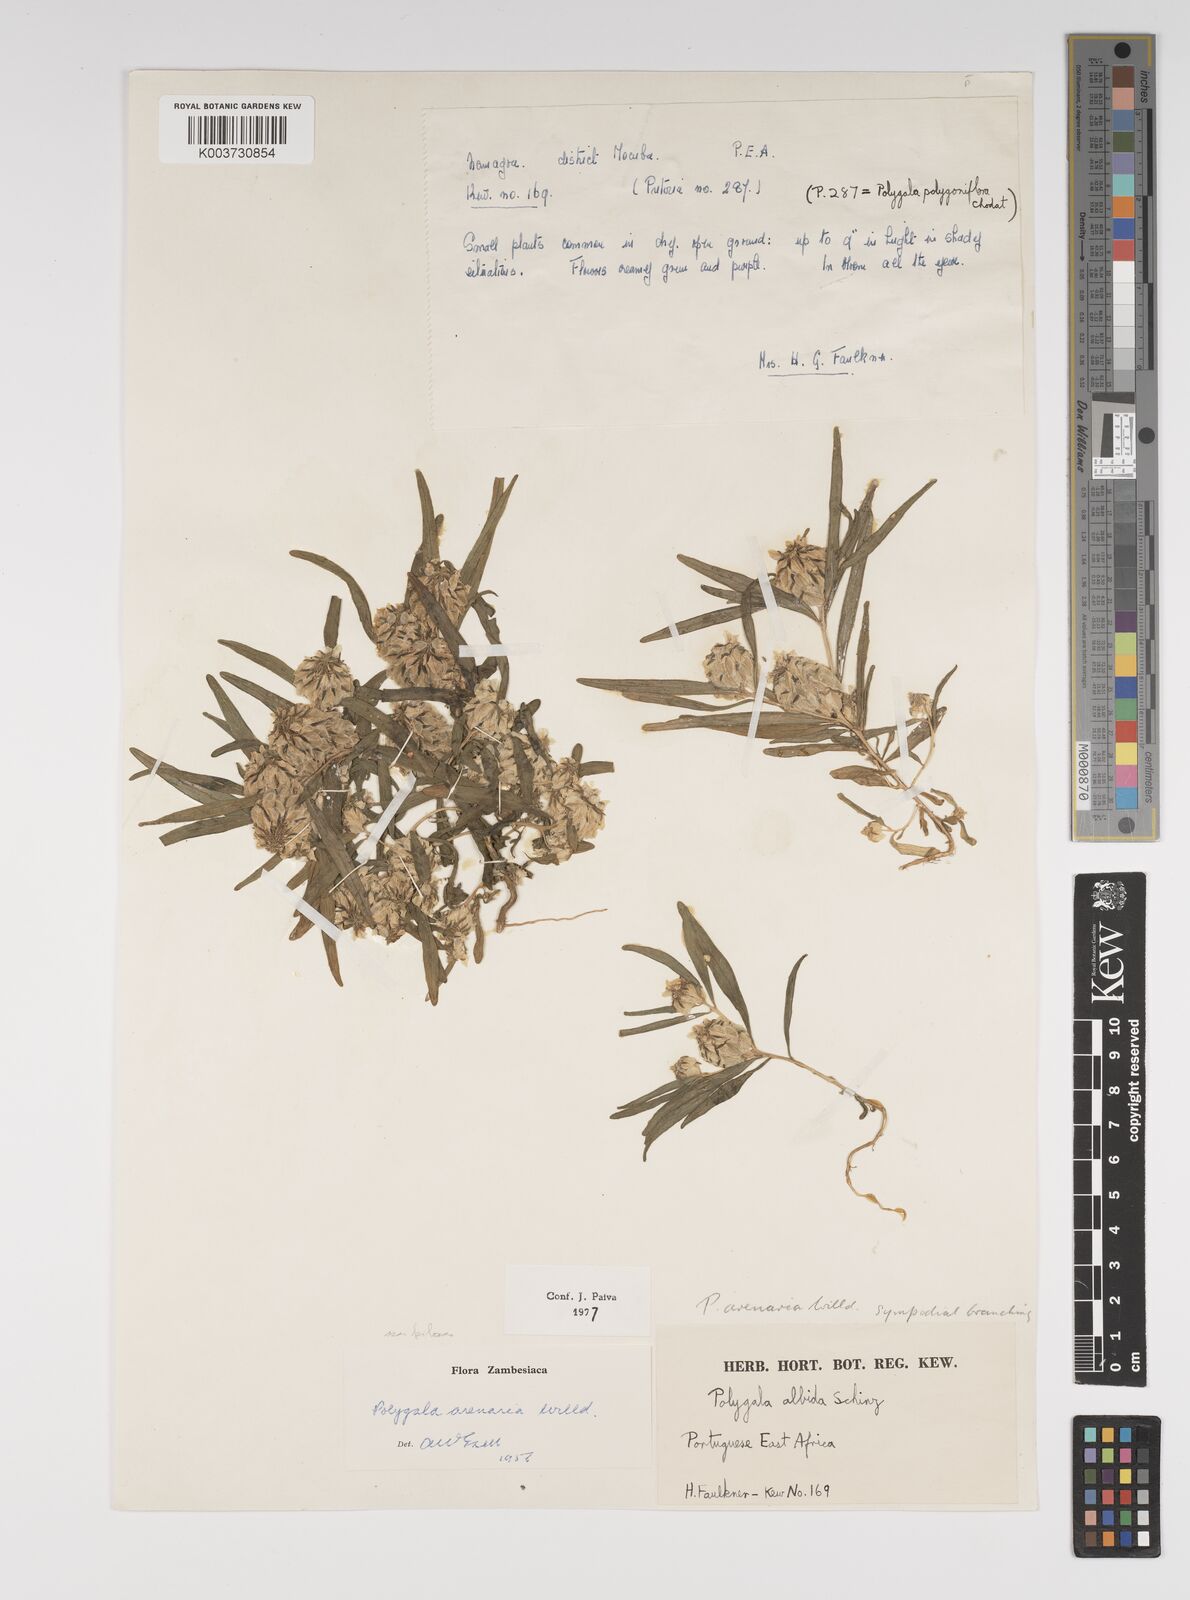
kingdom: Plantae
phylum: Tracheophyta
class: Magnoliopsida
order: Fabales
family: Polygalaceae
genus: Polygala
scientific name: Polygala arenaria
